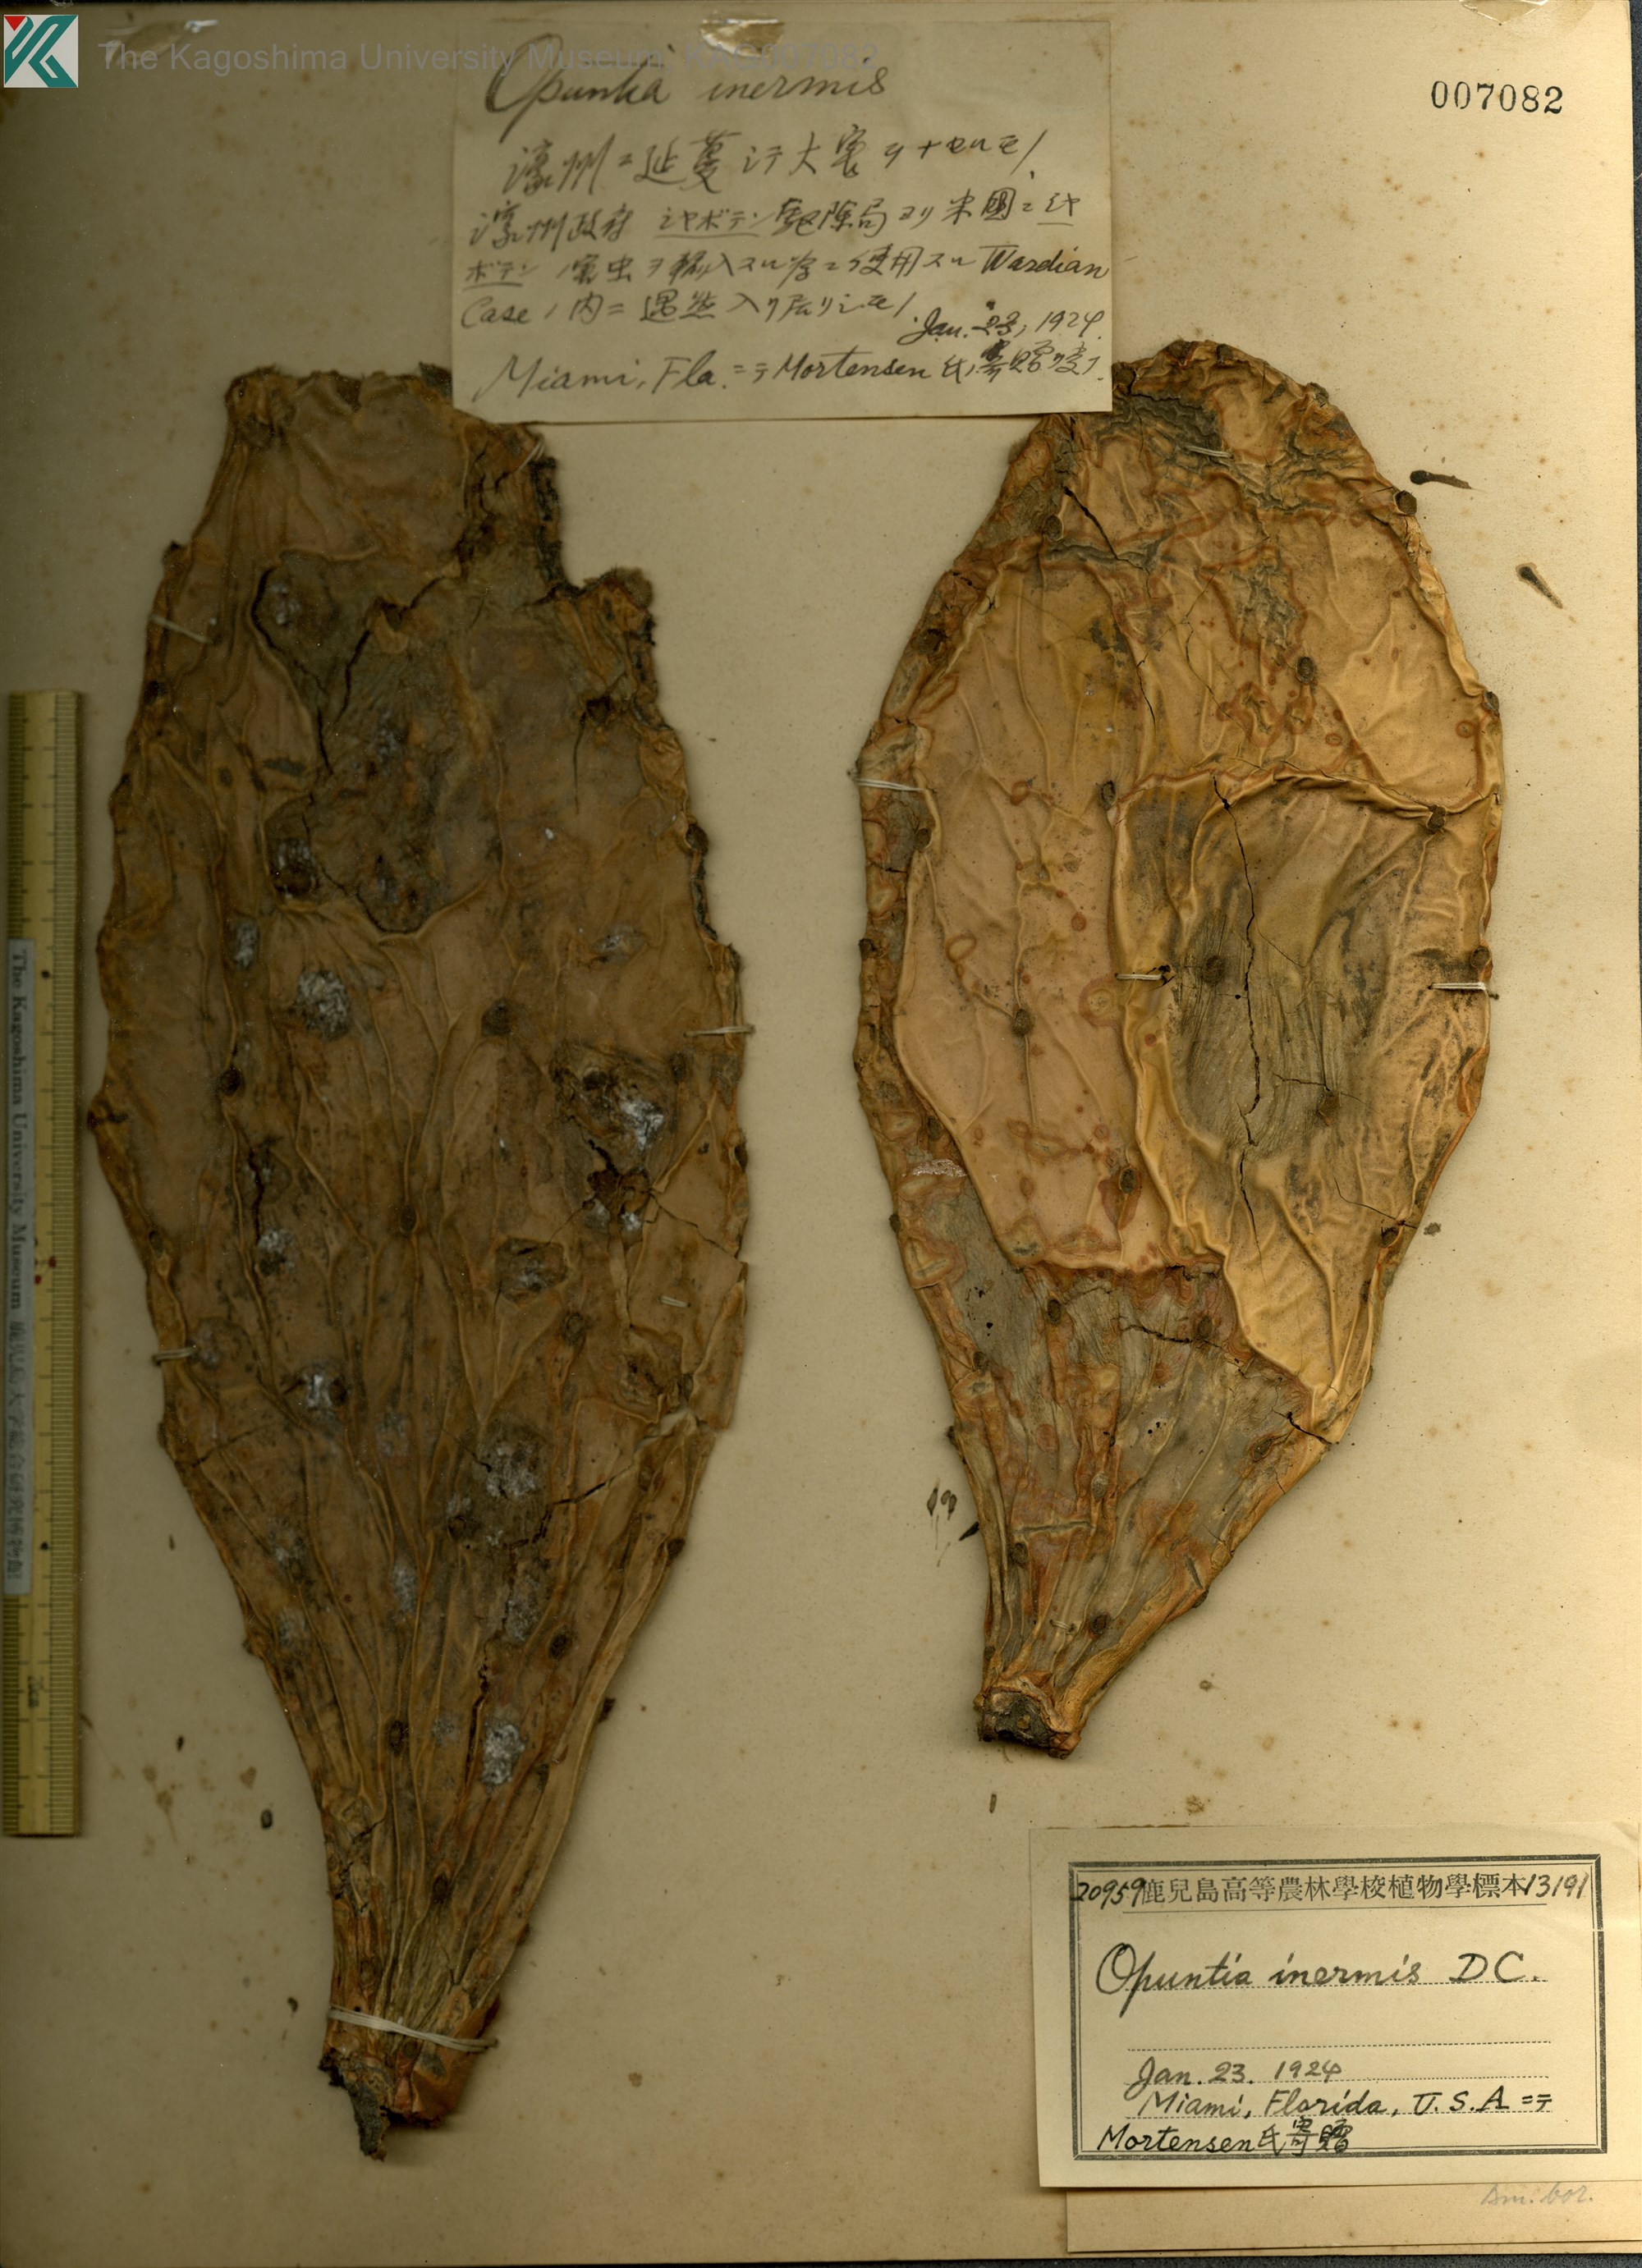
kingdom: Plantae
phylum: Tracheophyta
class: Magnoliopsida
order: Caryophyllales
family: Cactaceae
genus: Opuntia
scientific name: Opuntia stricta
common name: Erect pricklypear
